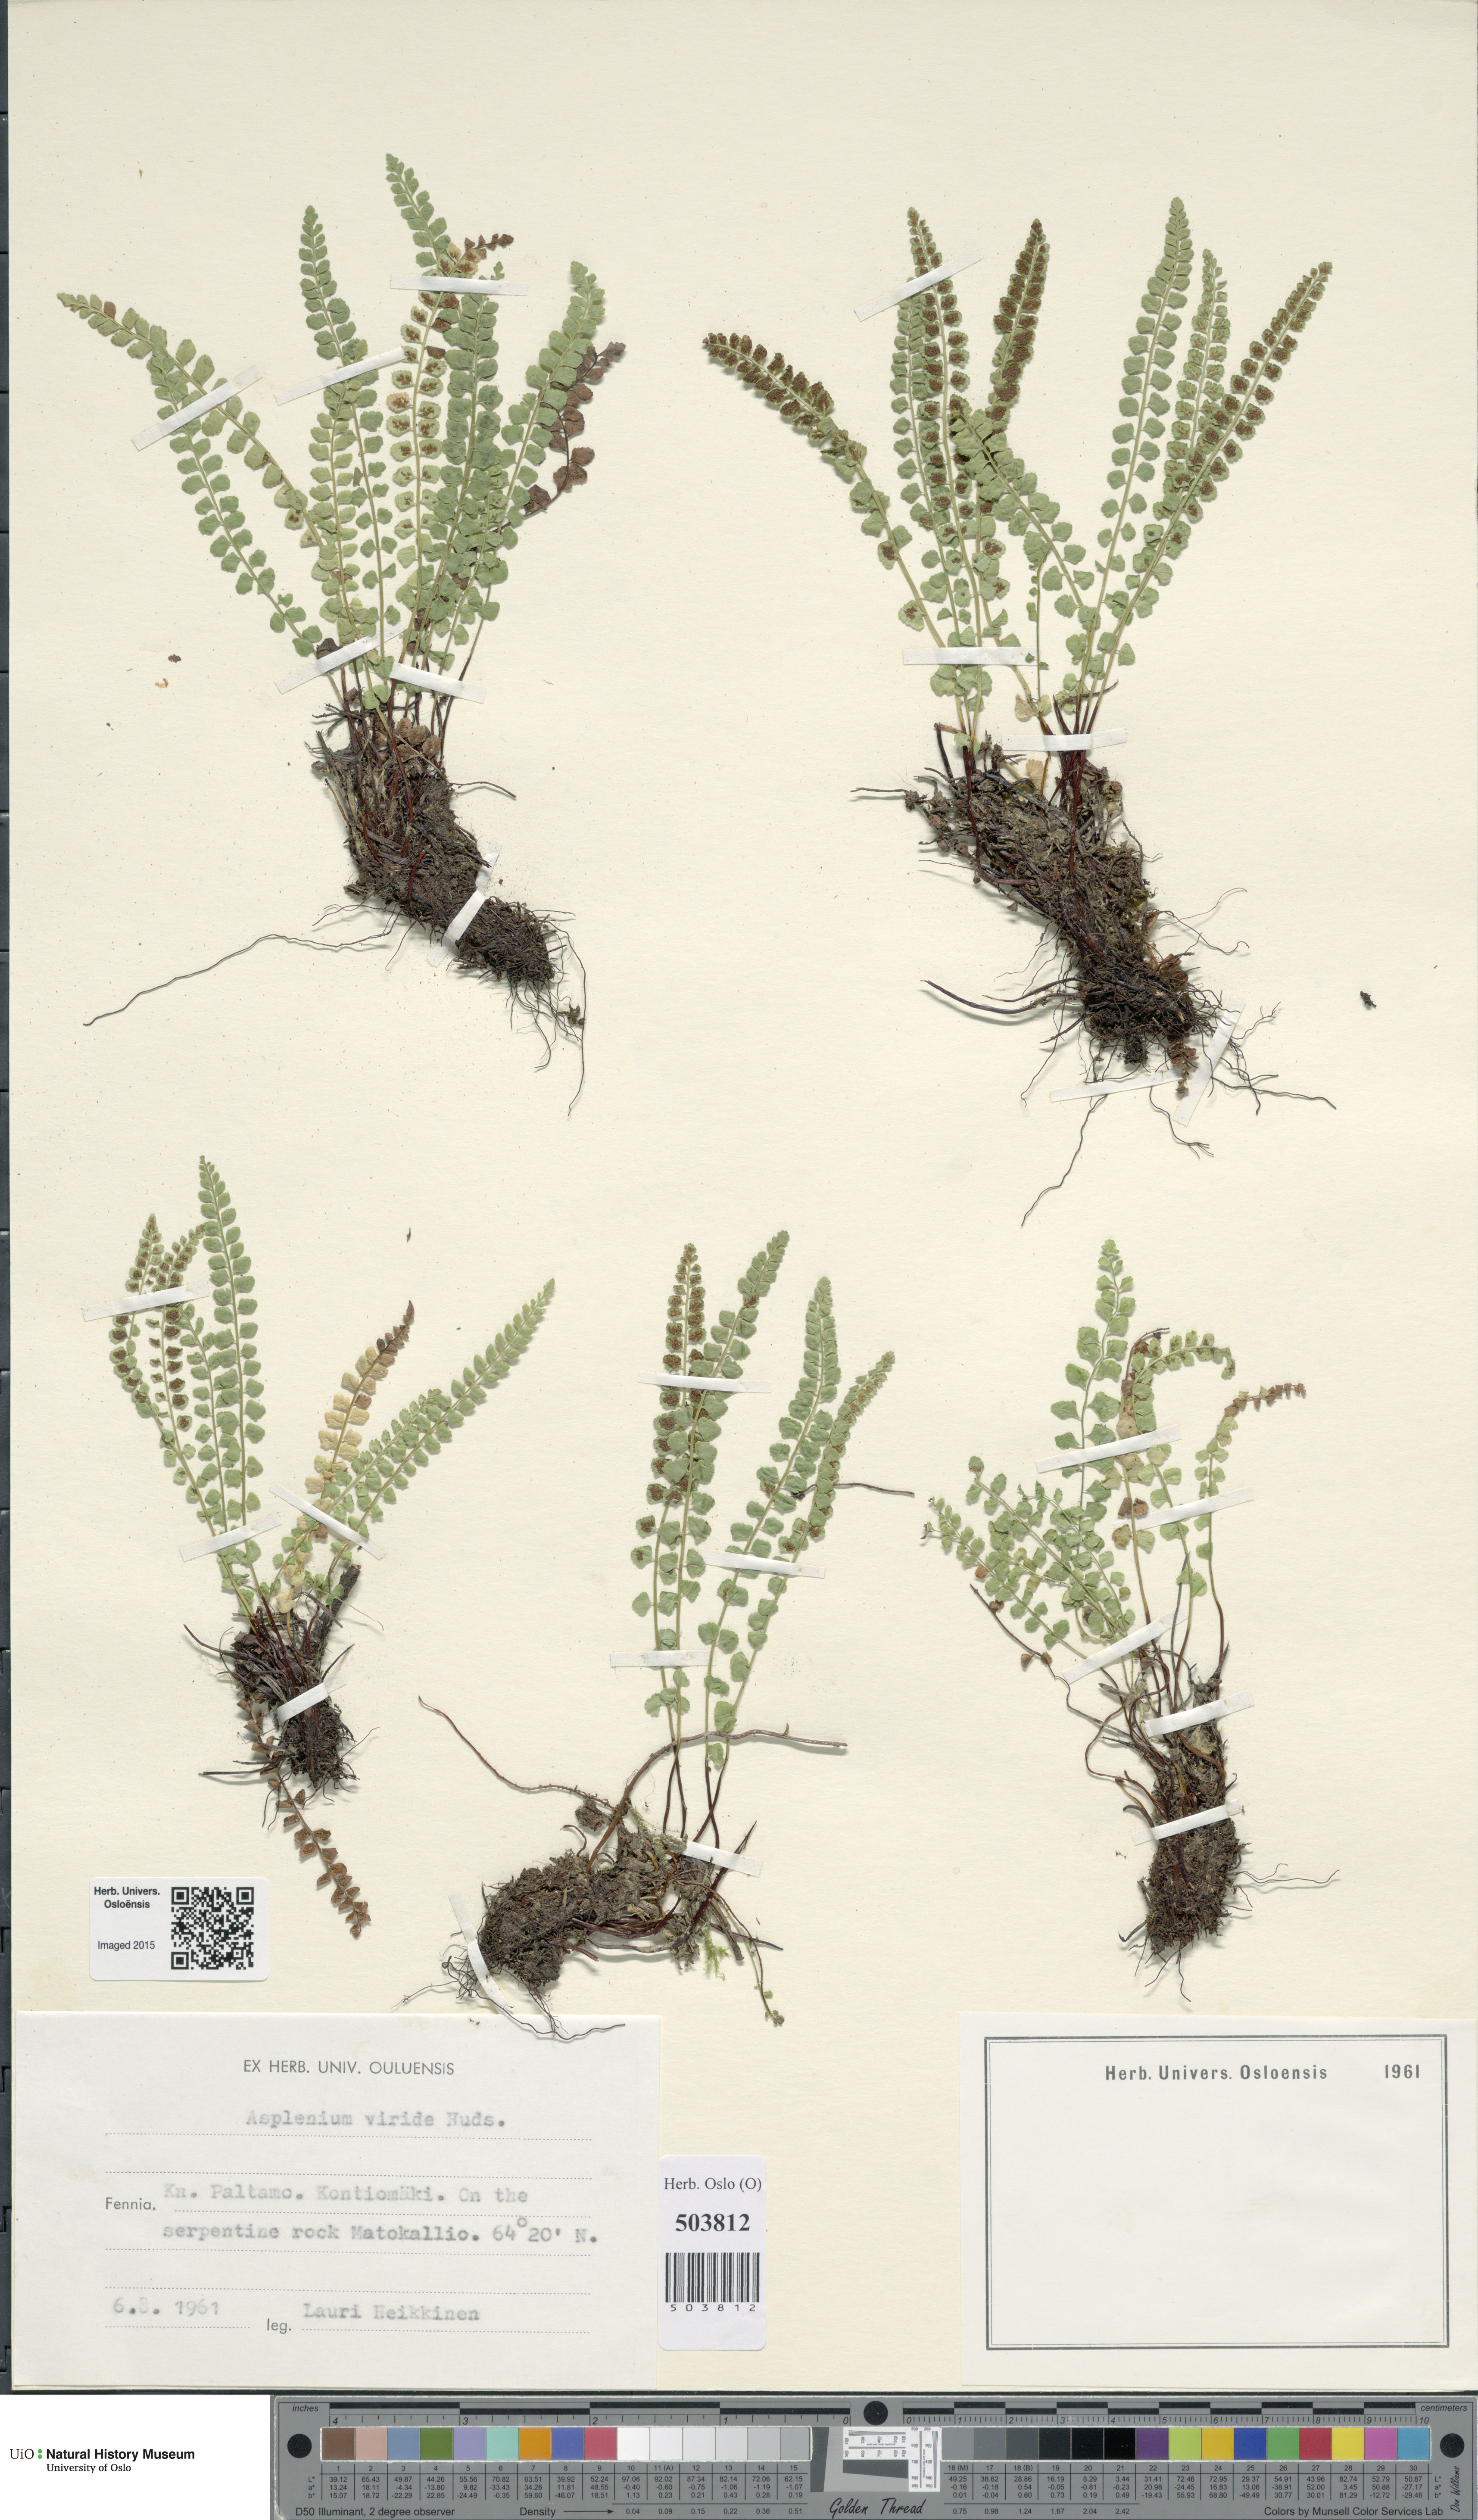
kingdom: Plantae
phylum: Tracheophyta
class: Polypodiopsida
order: Polypodiales
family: Aspleniaceae
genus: Asplenium
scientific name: Asplenium viride
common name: Green spleenwort
